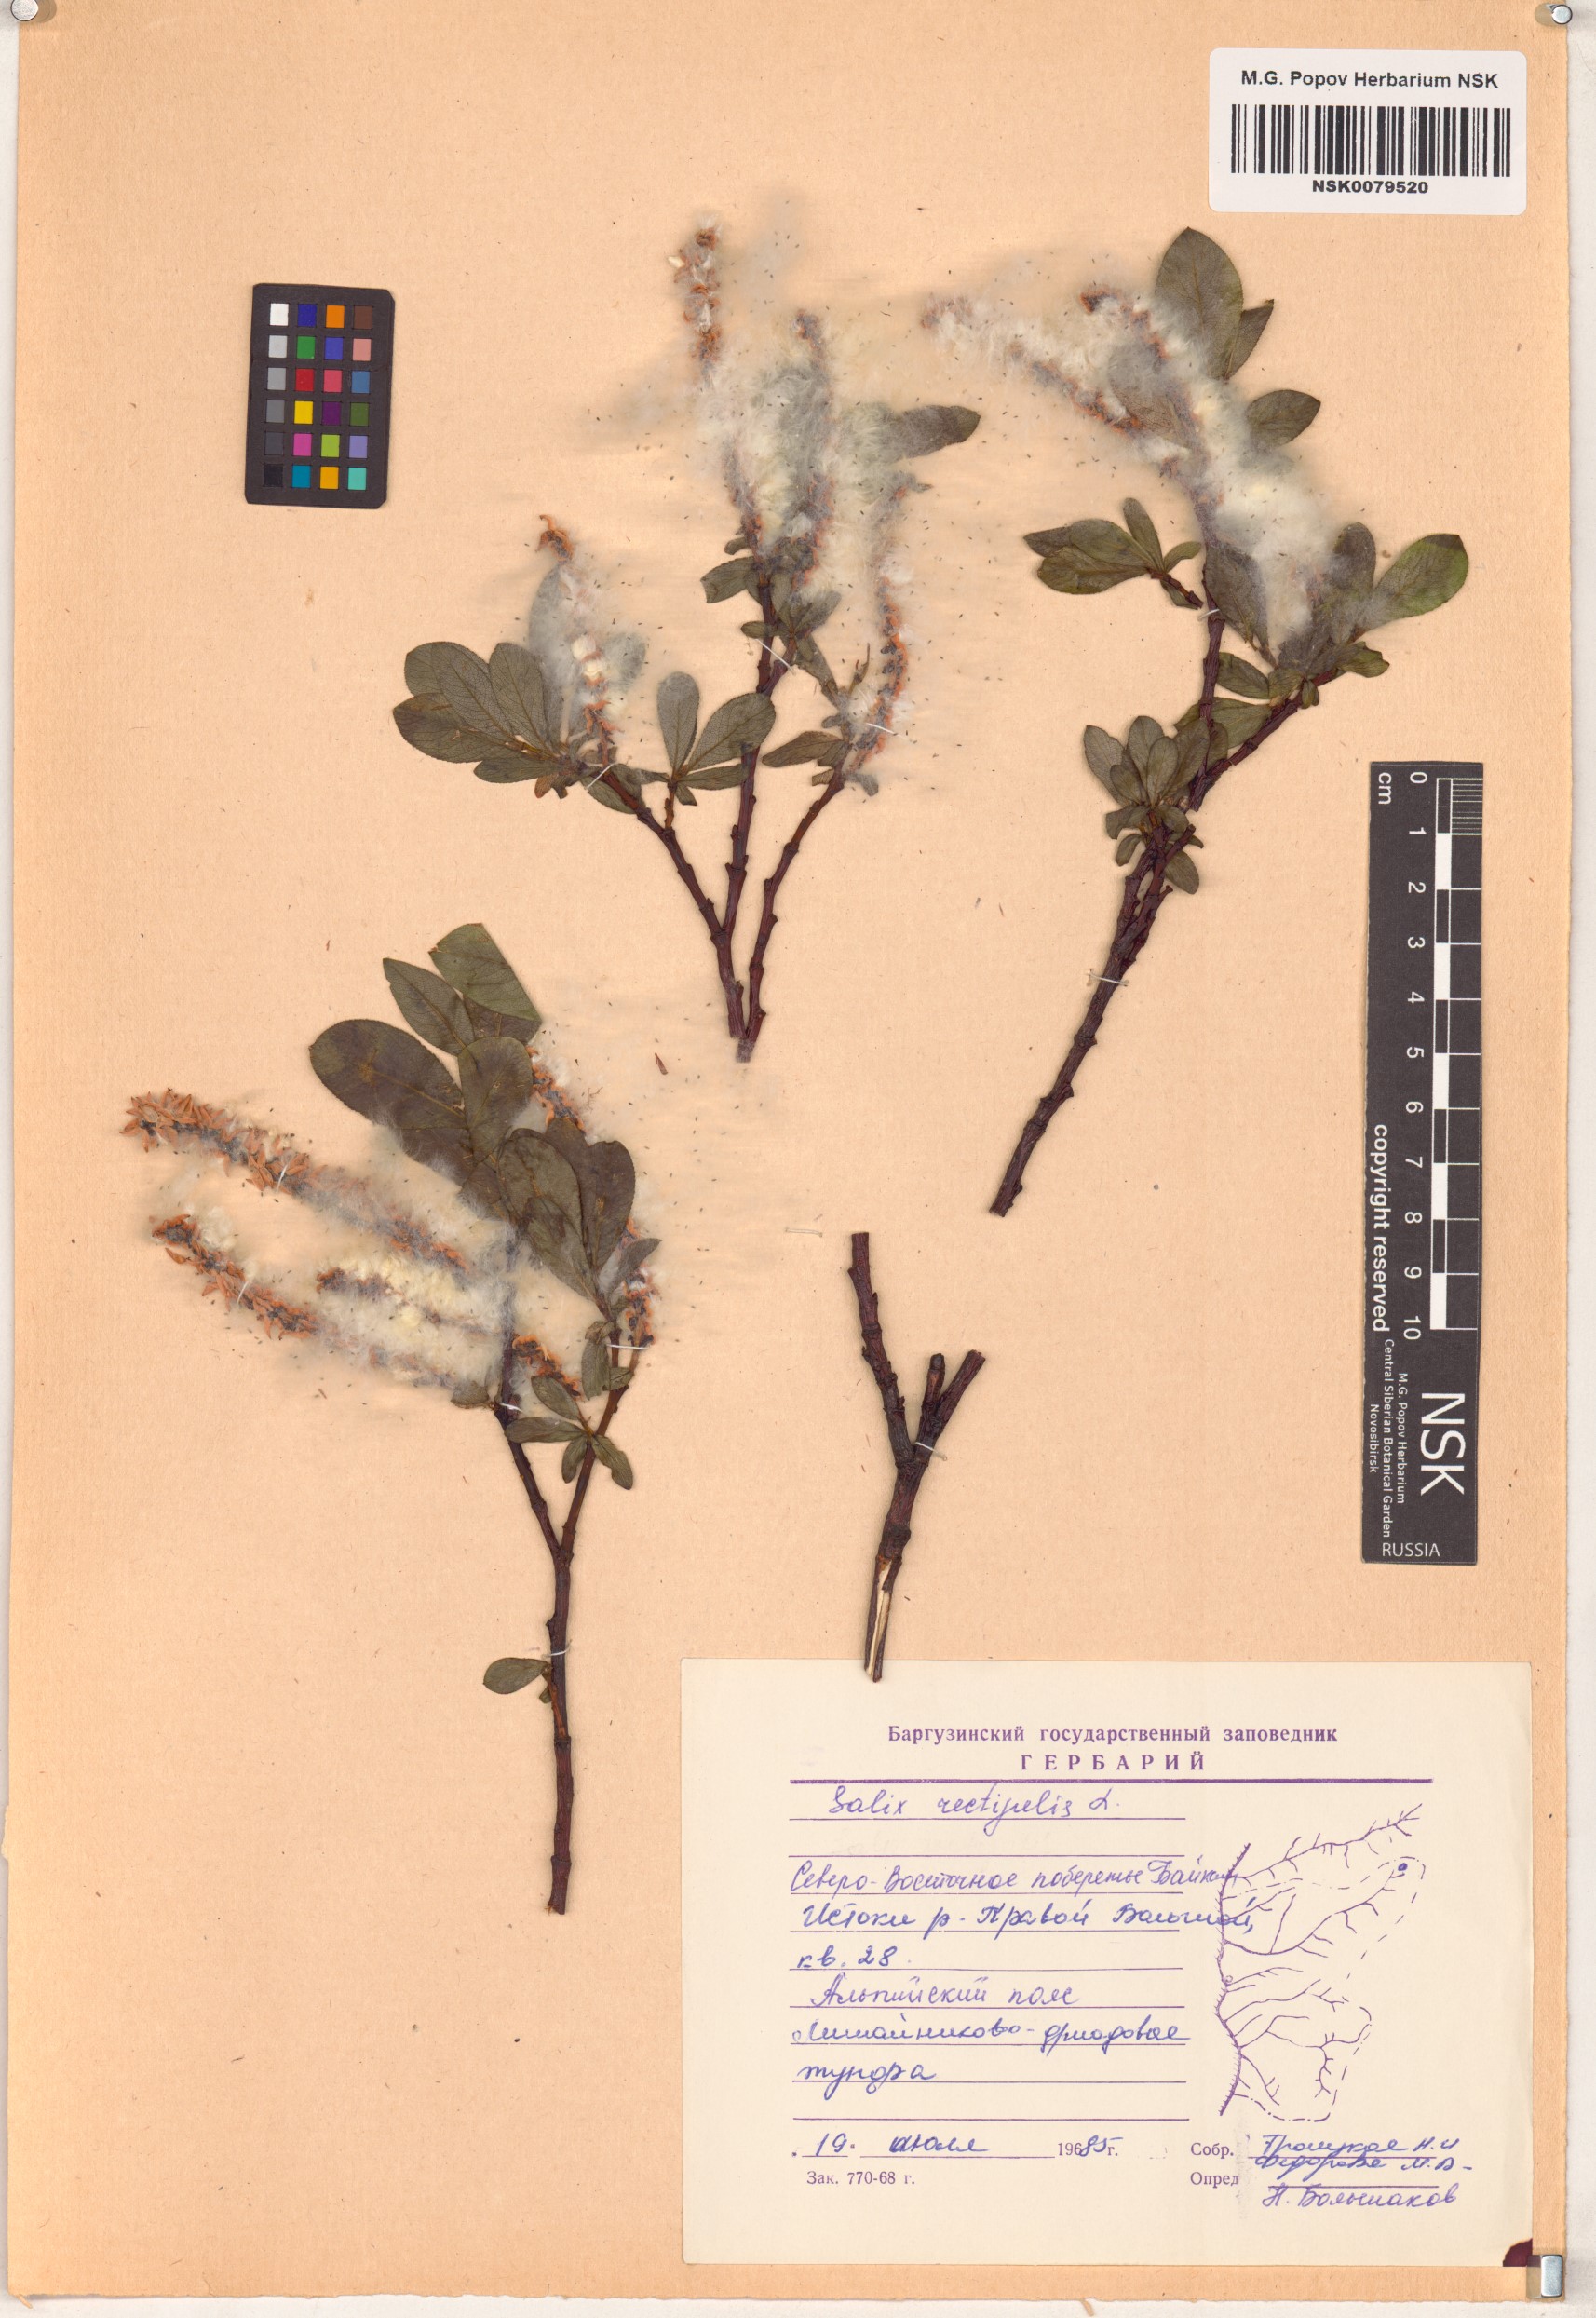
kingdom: Plantae
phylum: Tracheophyta
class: Magnoliopsida
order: Malpighiales
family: Salicaceae
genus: Salix
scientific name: Salix rectijulis
